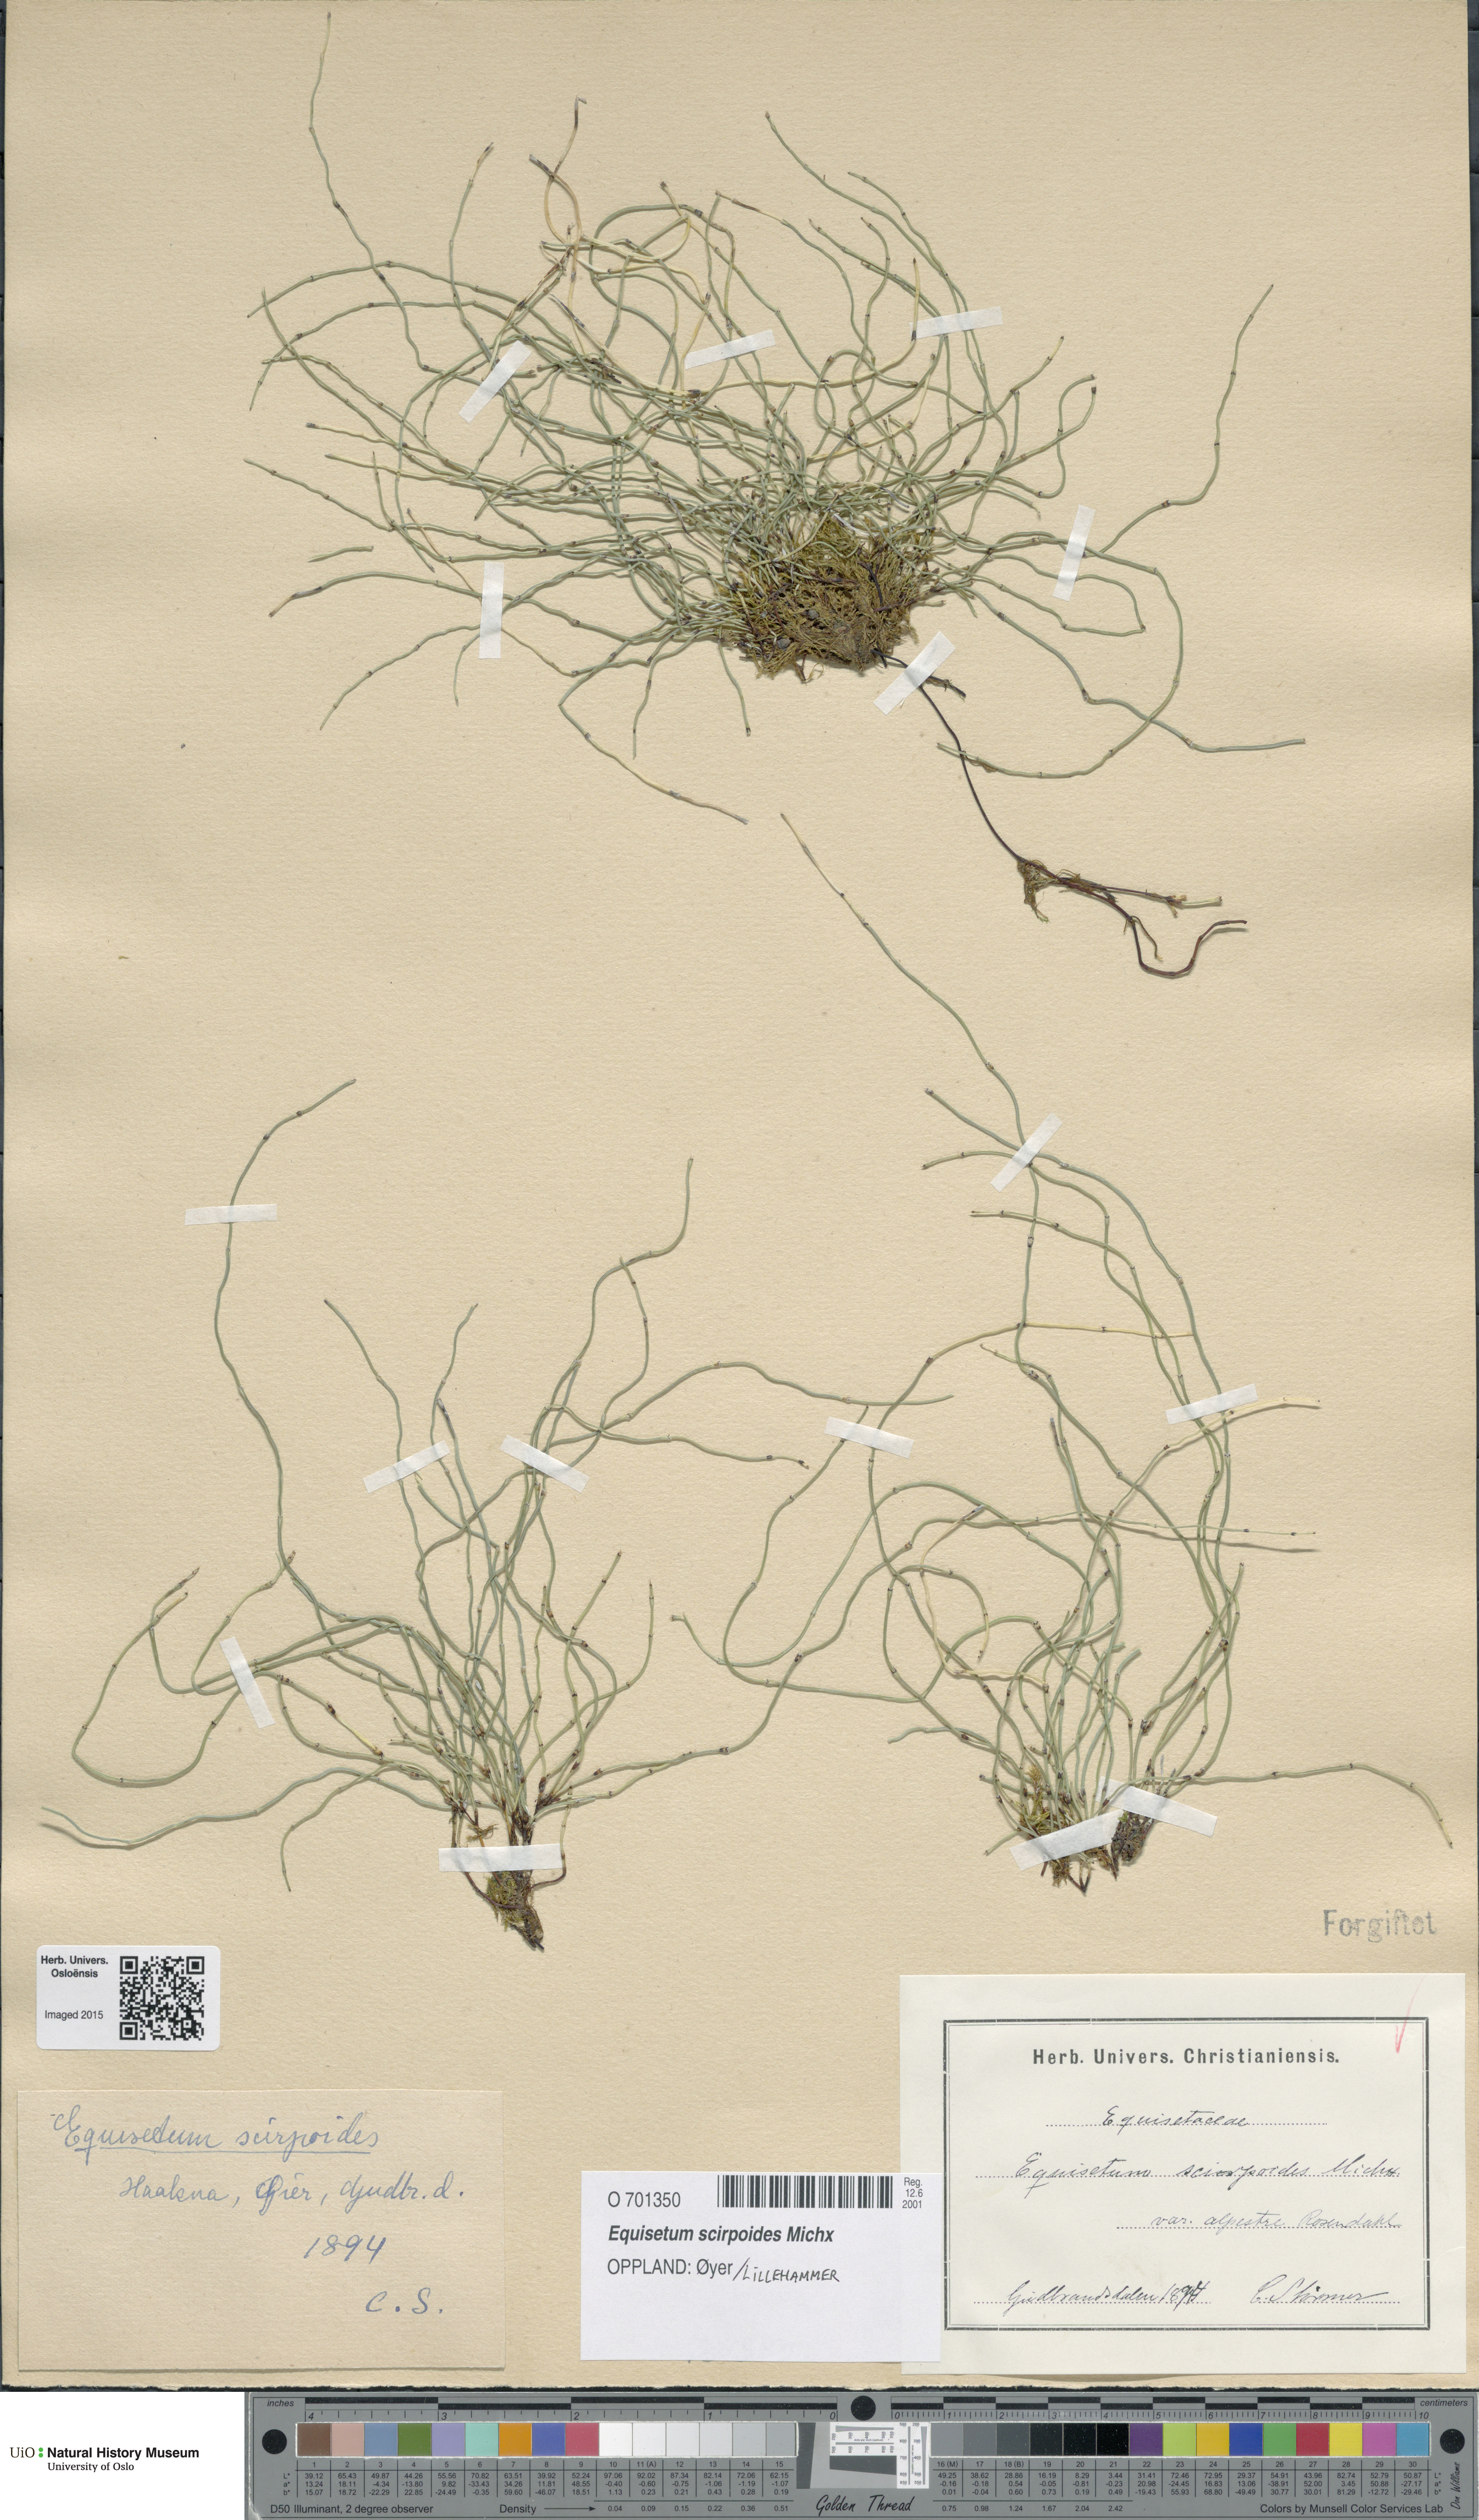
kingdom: Plantae
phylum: Tracheophyta
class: Polypodiopsida
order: Equisetales
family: Equisetaceae
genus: Equisetum
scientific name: Equisetum scirpoides
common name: Delicate horsetail
